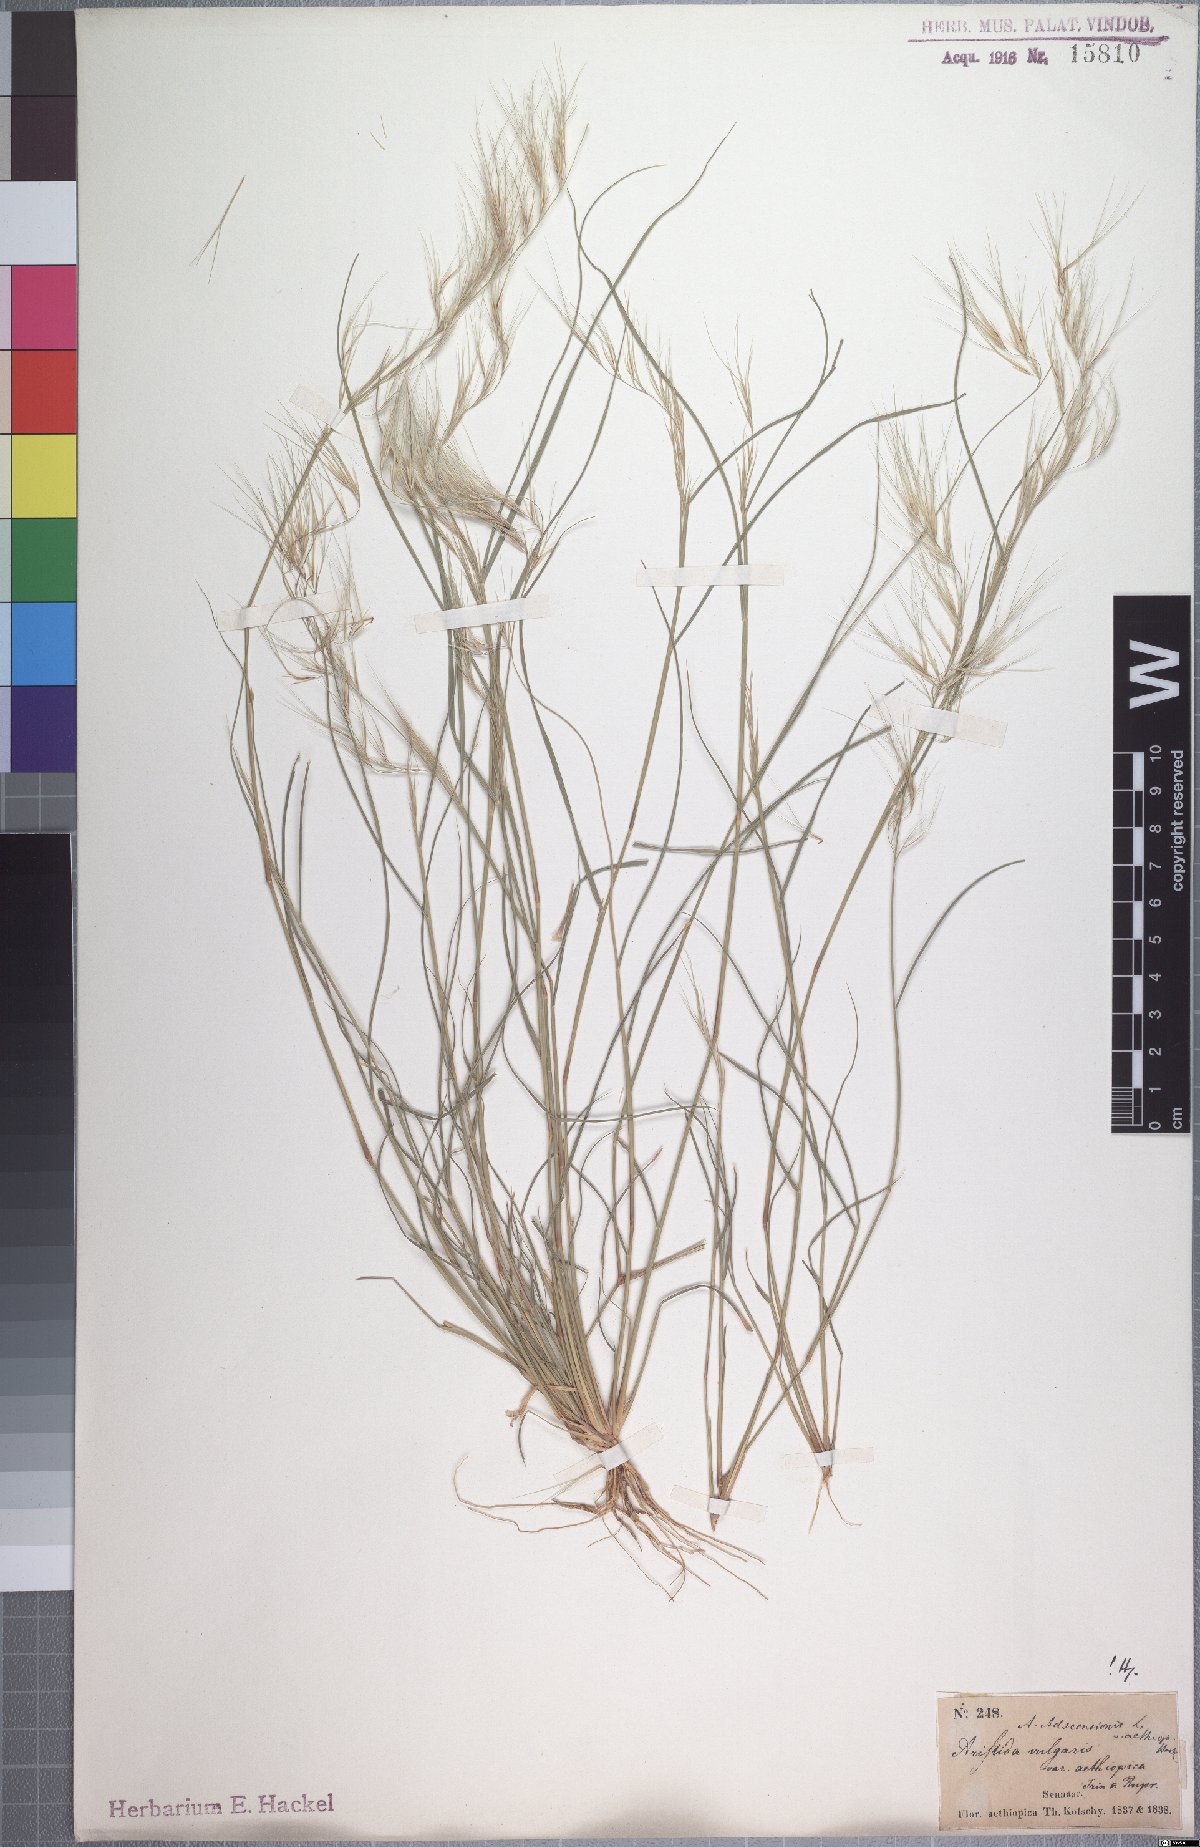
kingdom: Plantae
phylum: Tracheophyta
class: Liliopsida
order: Poales
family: Poaceae
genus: Aristida
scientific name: Aristida adscensionis
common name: Sixweeks threeawn
